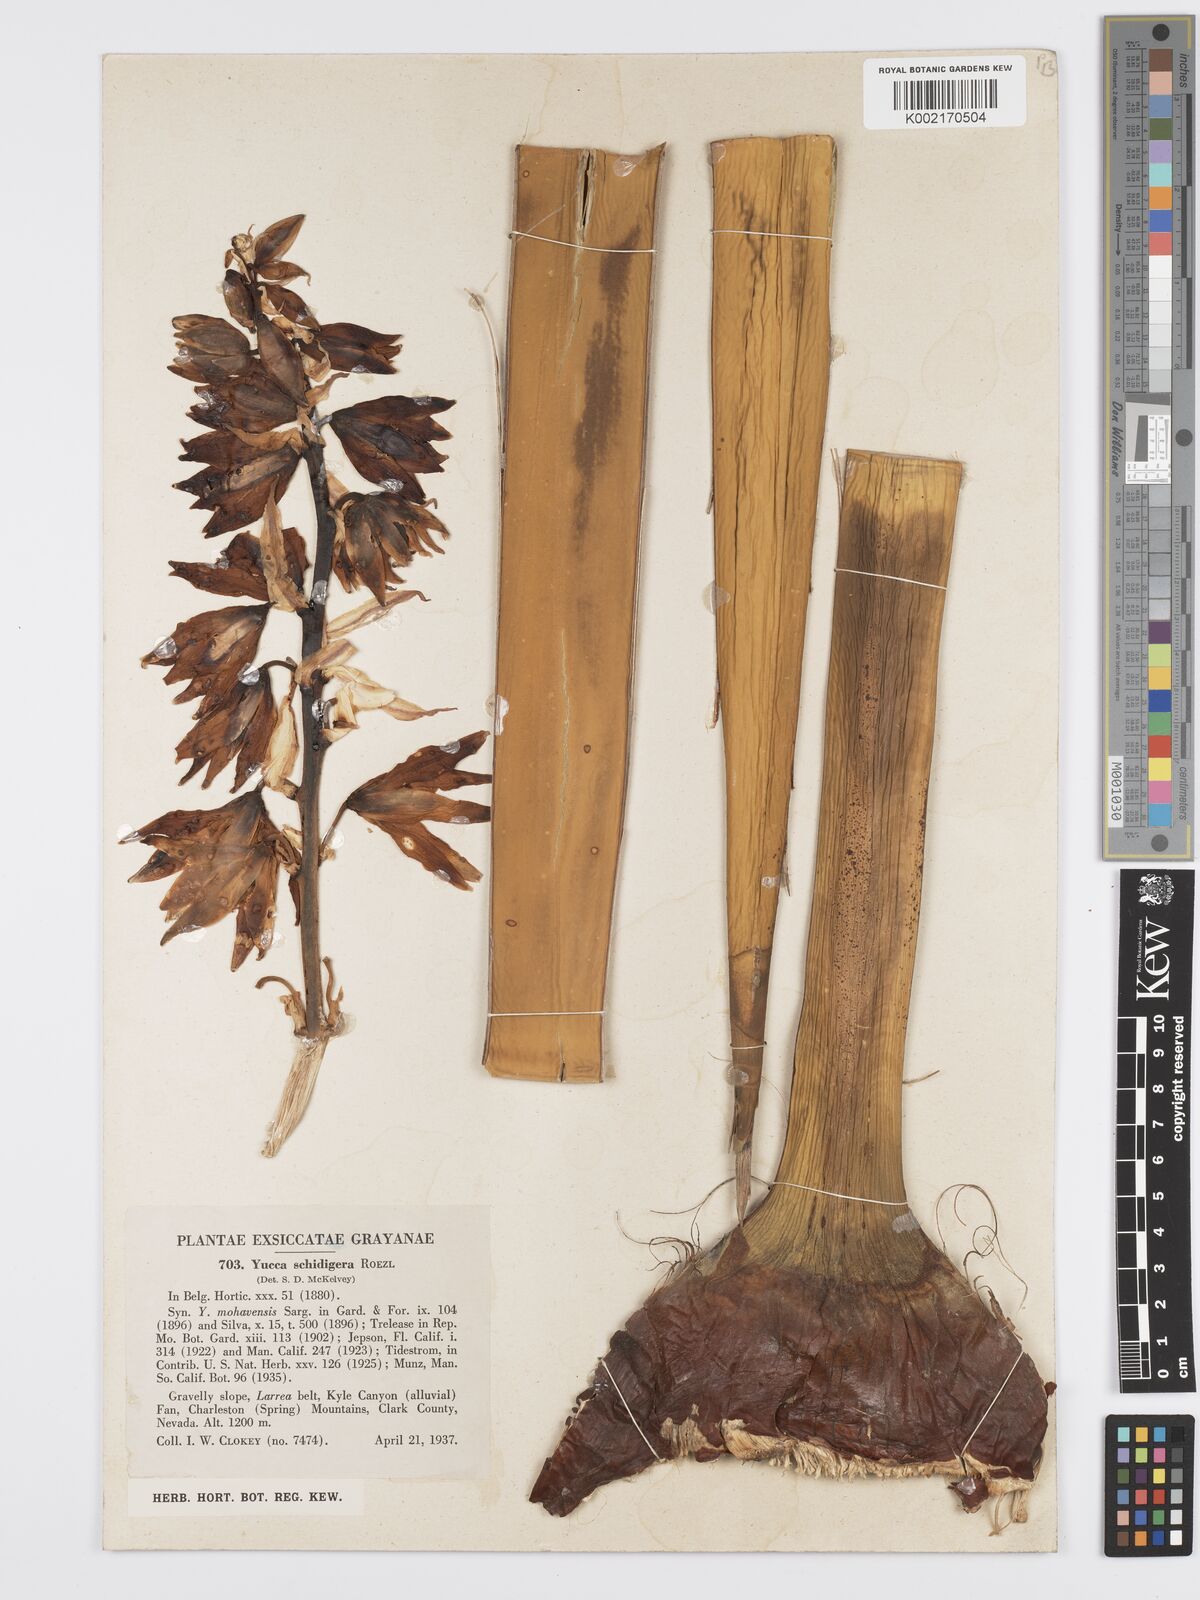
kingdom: Plantae
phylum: Tracheophyta
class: Liliopsida
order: Asparagales
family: Asparagaceae
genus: Yucca
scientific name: Yucca schidigera
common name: Mojave yucca
